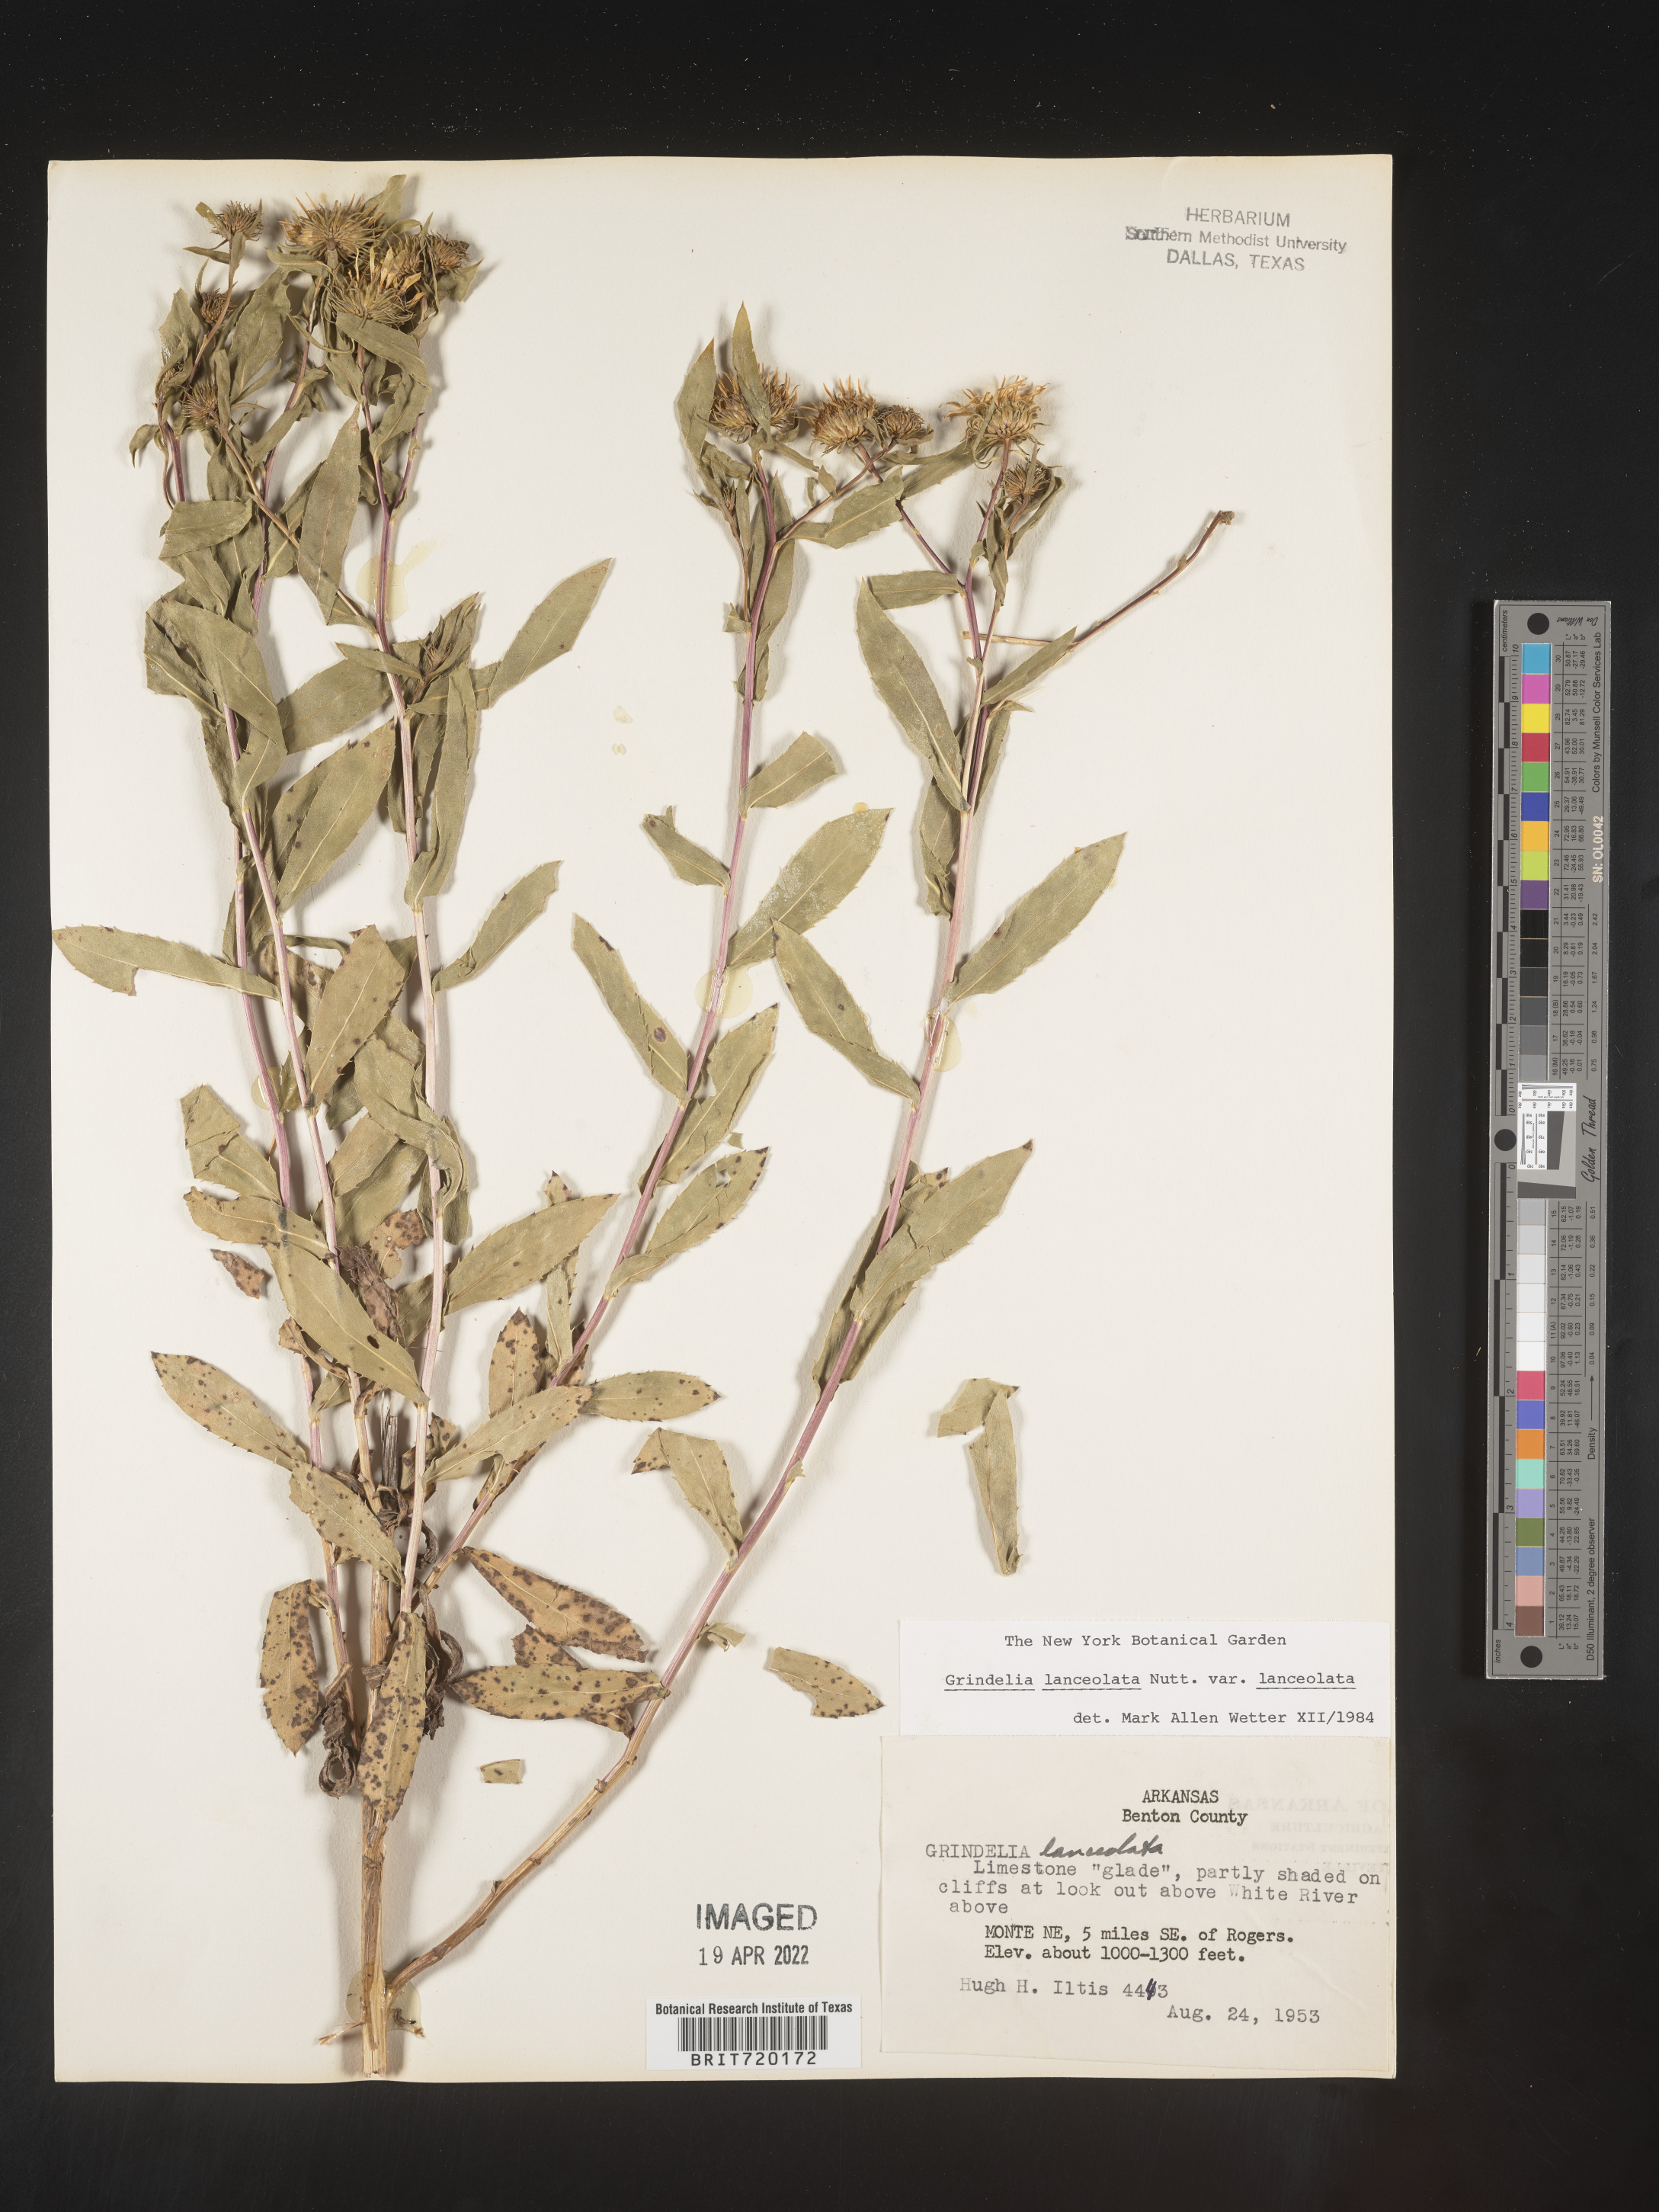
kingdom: Plantae
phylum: Tracheophyta
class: Magnoliopsida
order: Asterales
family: Asteraceae
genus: Grindelia
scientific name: Grindelia lanceolata
